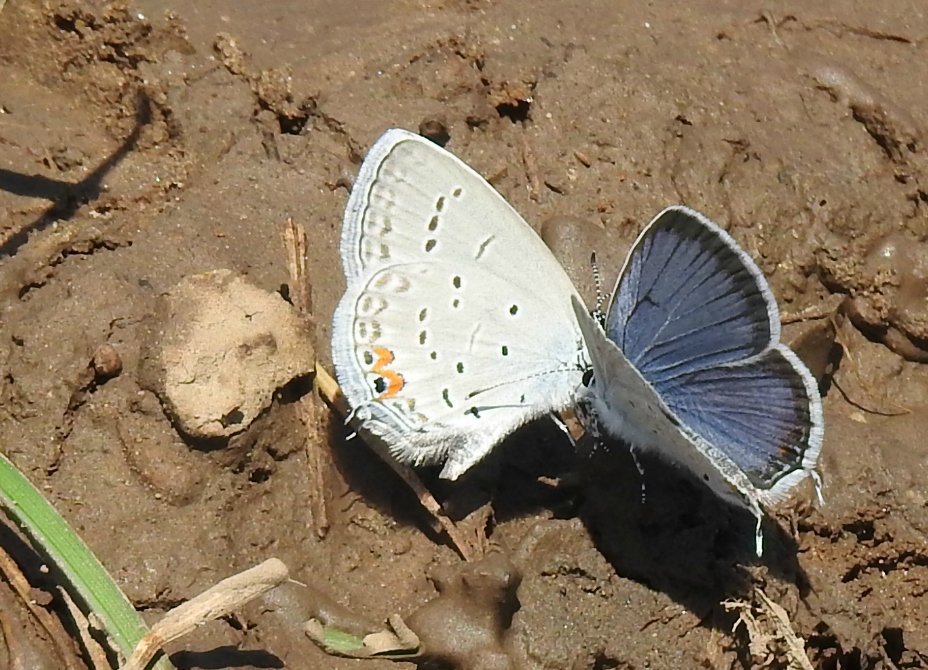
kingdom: Animalia
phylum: Arthropoda
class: Insecta
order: Lepidoptera
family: Lycaenidae
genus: Elkalyce
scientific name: Elkalyce comyntas
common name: Eastern Tailed-Blue
